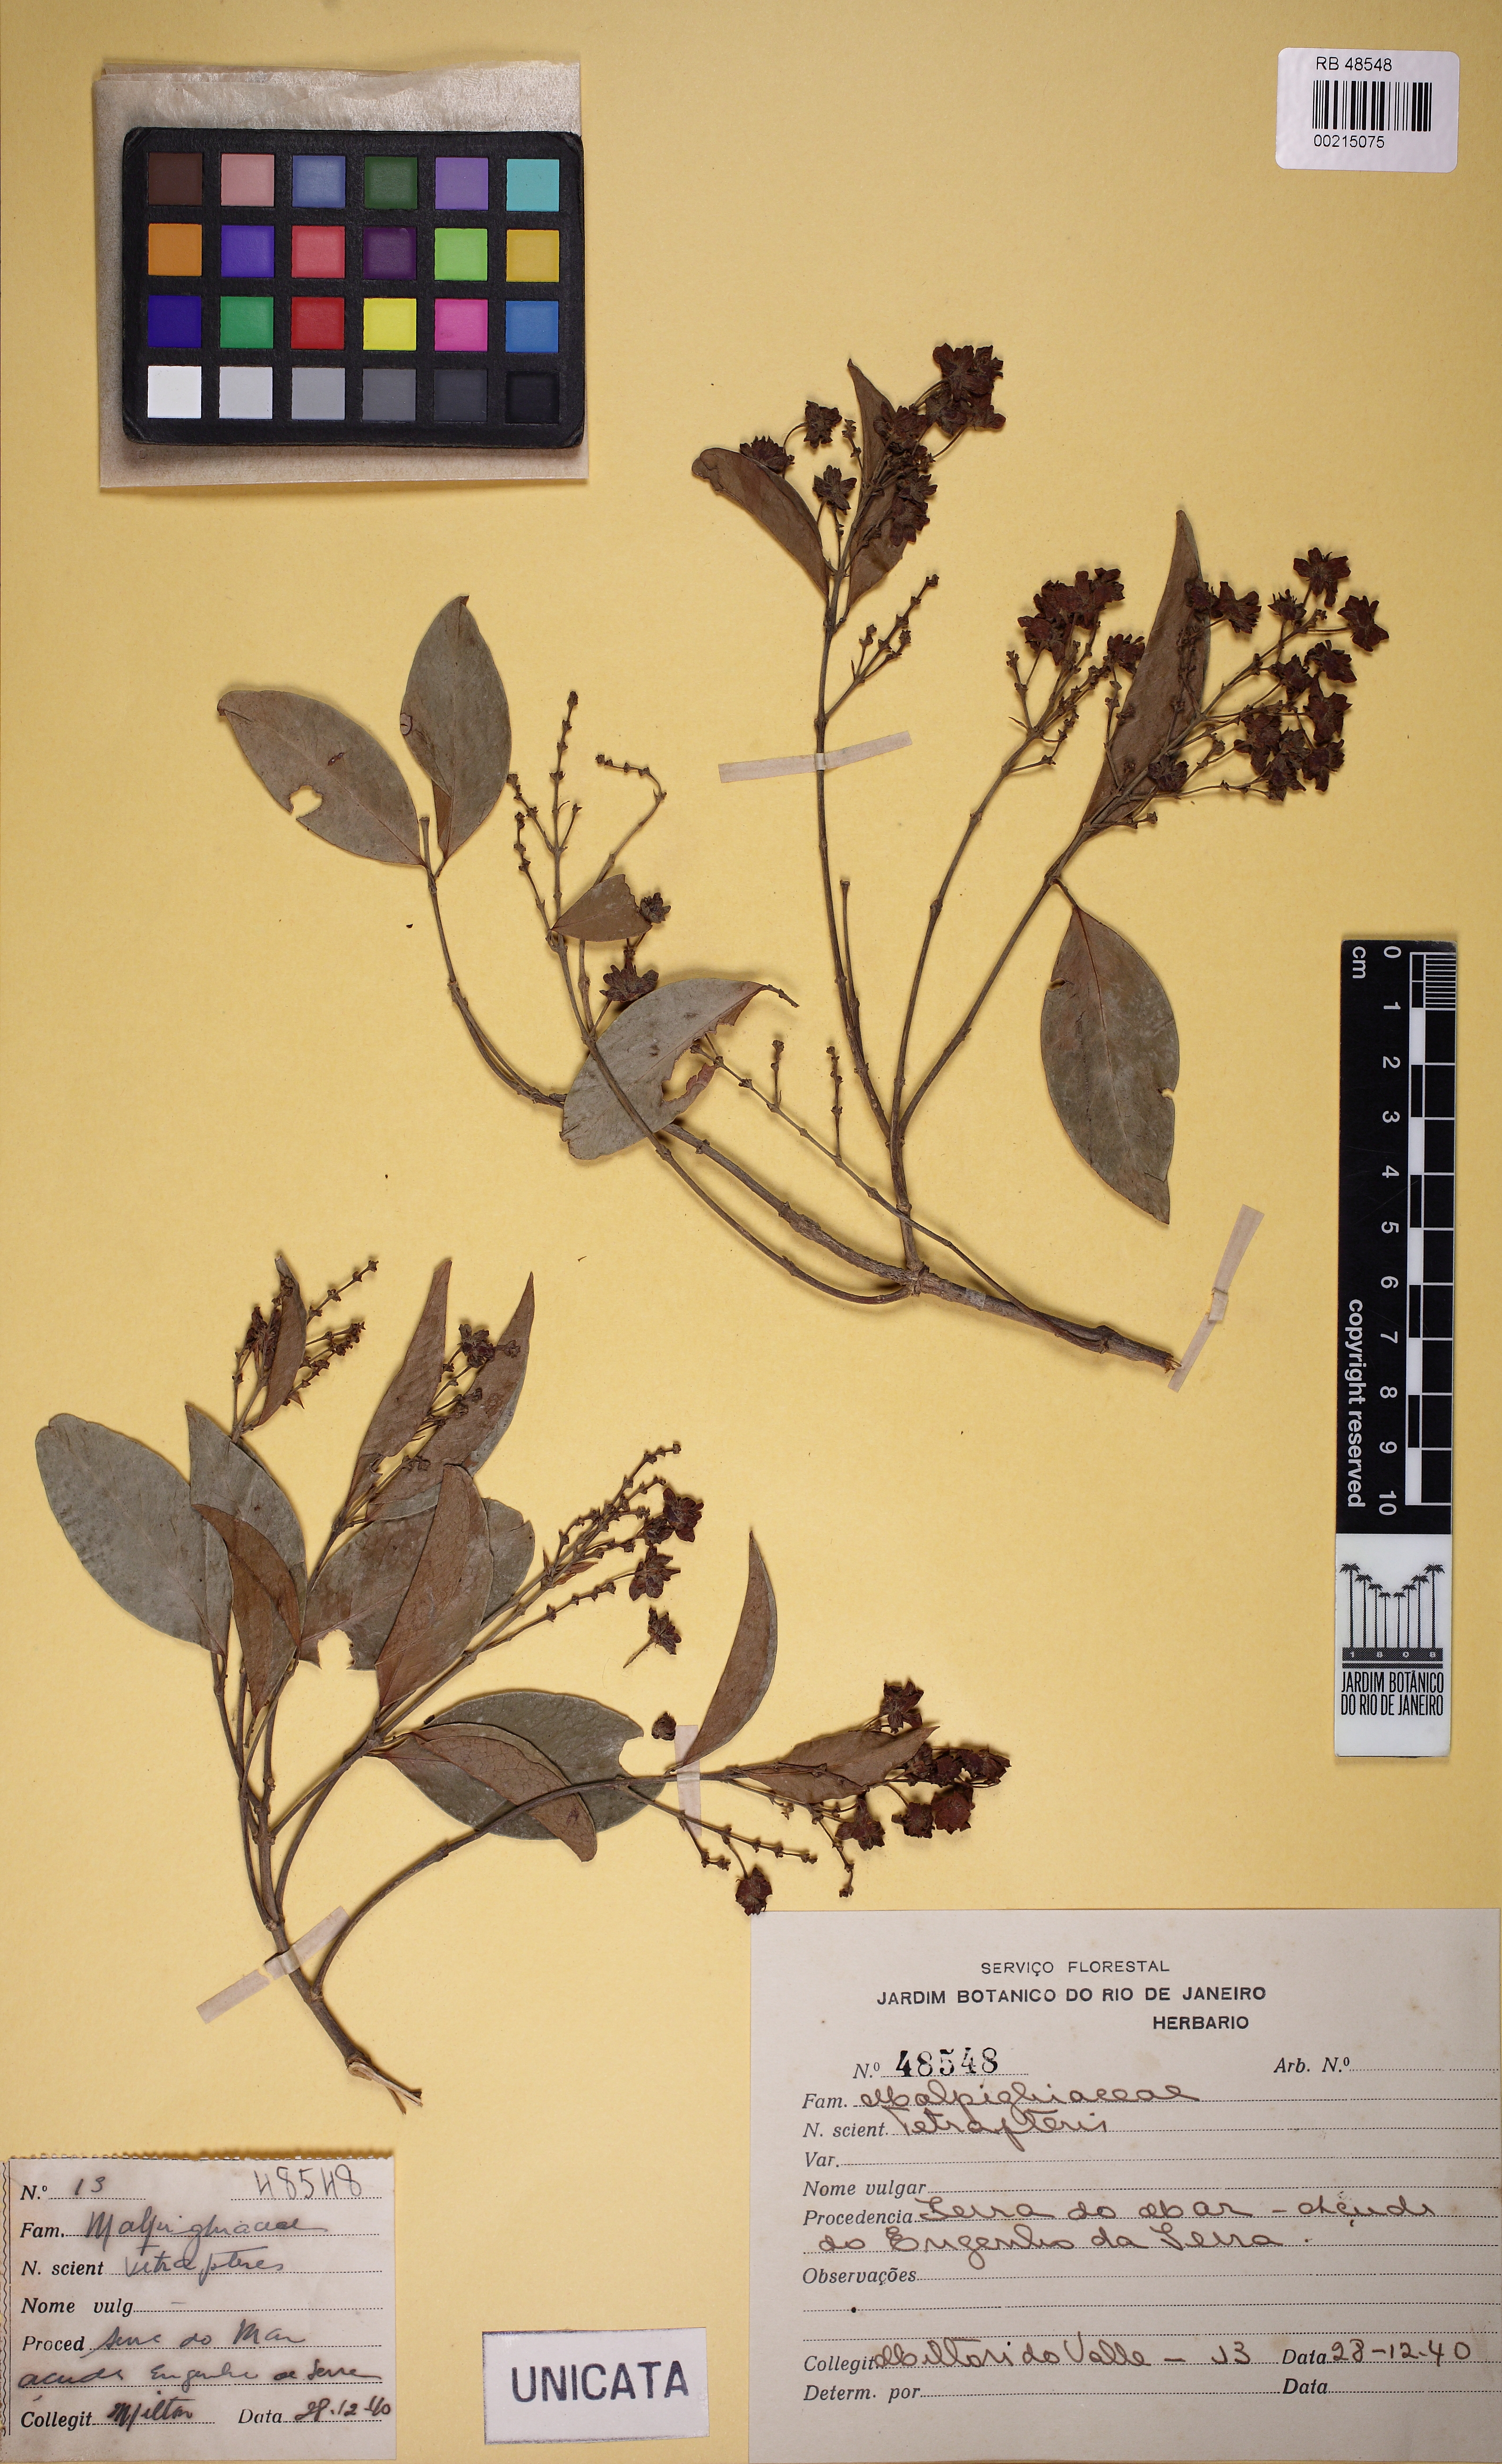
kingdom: Plantae
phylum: Tracheophyta
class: Magnoliopsida
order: Malpighiales
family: Malpighiaceae
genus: Niedenzuella
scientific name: Niedenzuella
